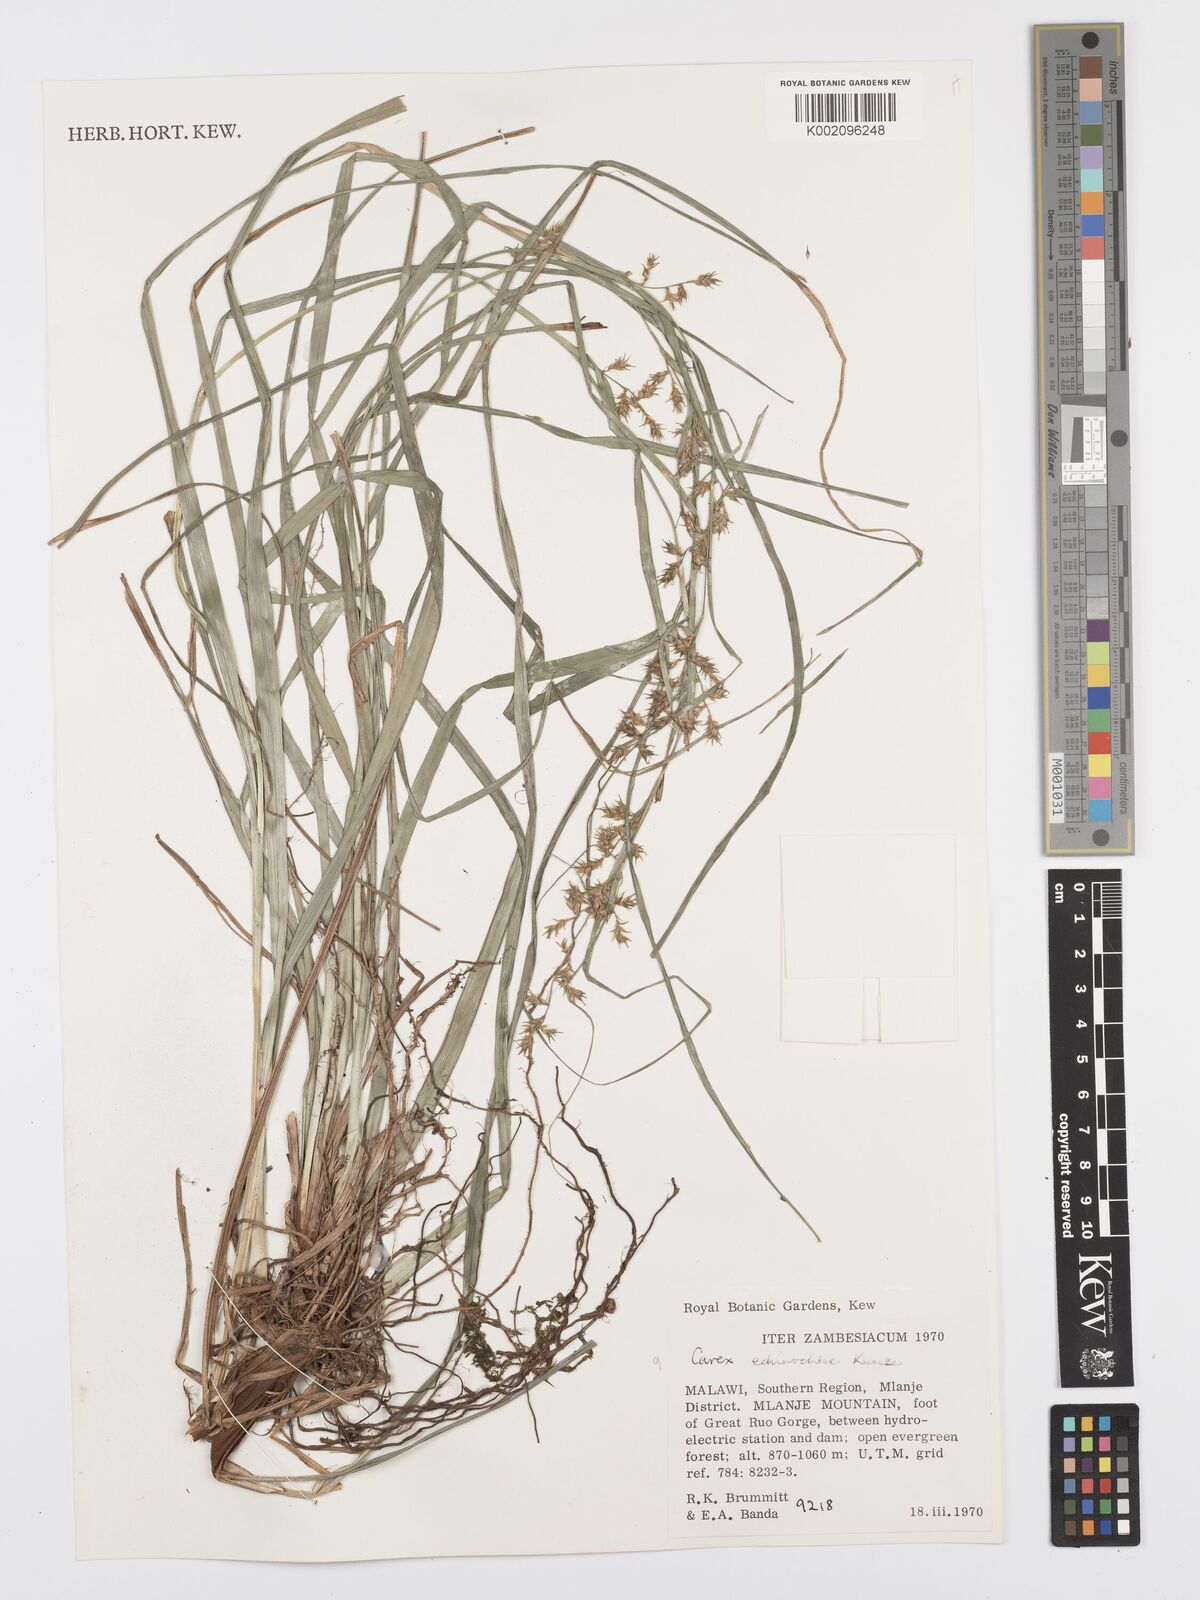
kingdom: Plantae
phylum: Tracheophyta
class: Liliopsida
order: Poales
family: Cyperaceae
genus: Carex
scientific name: Carex echinochloe
